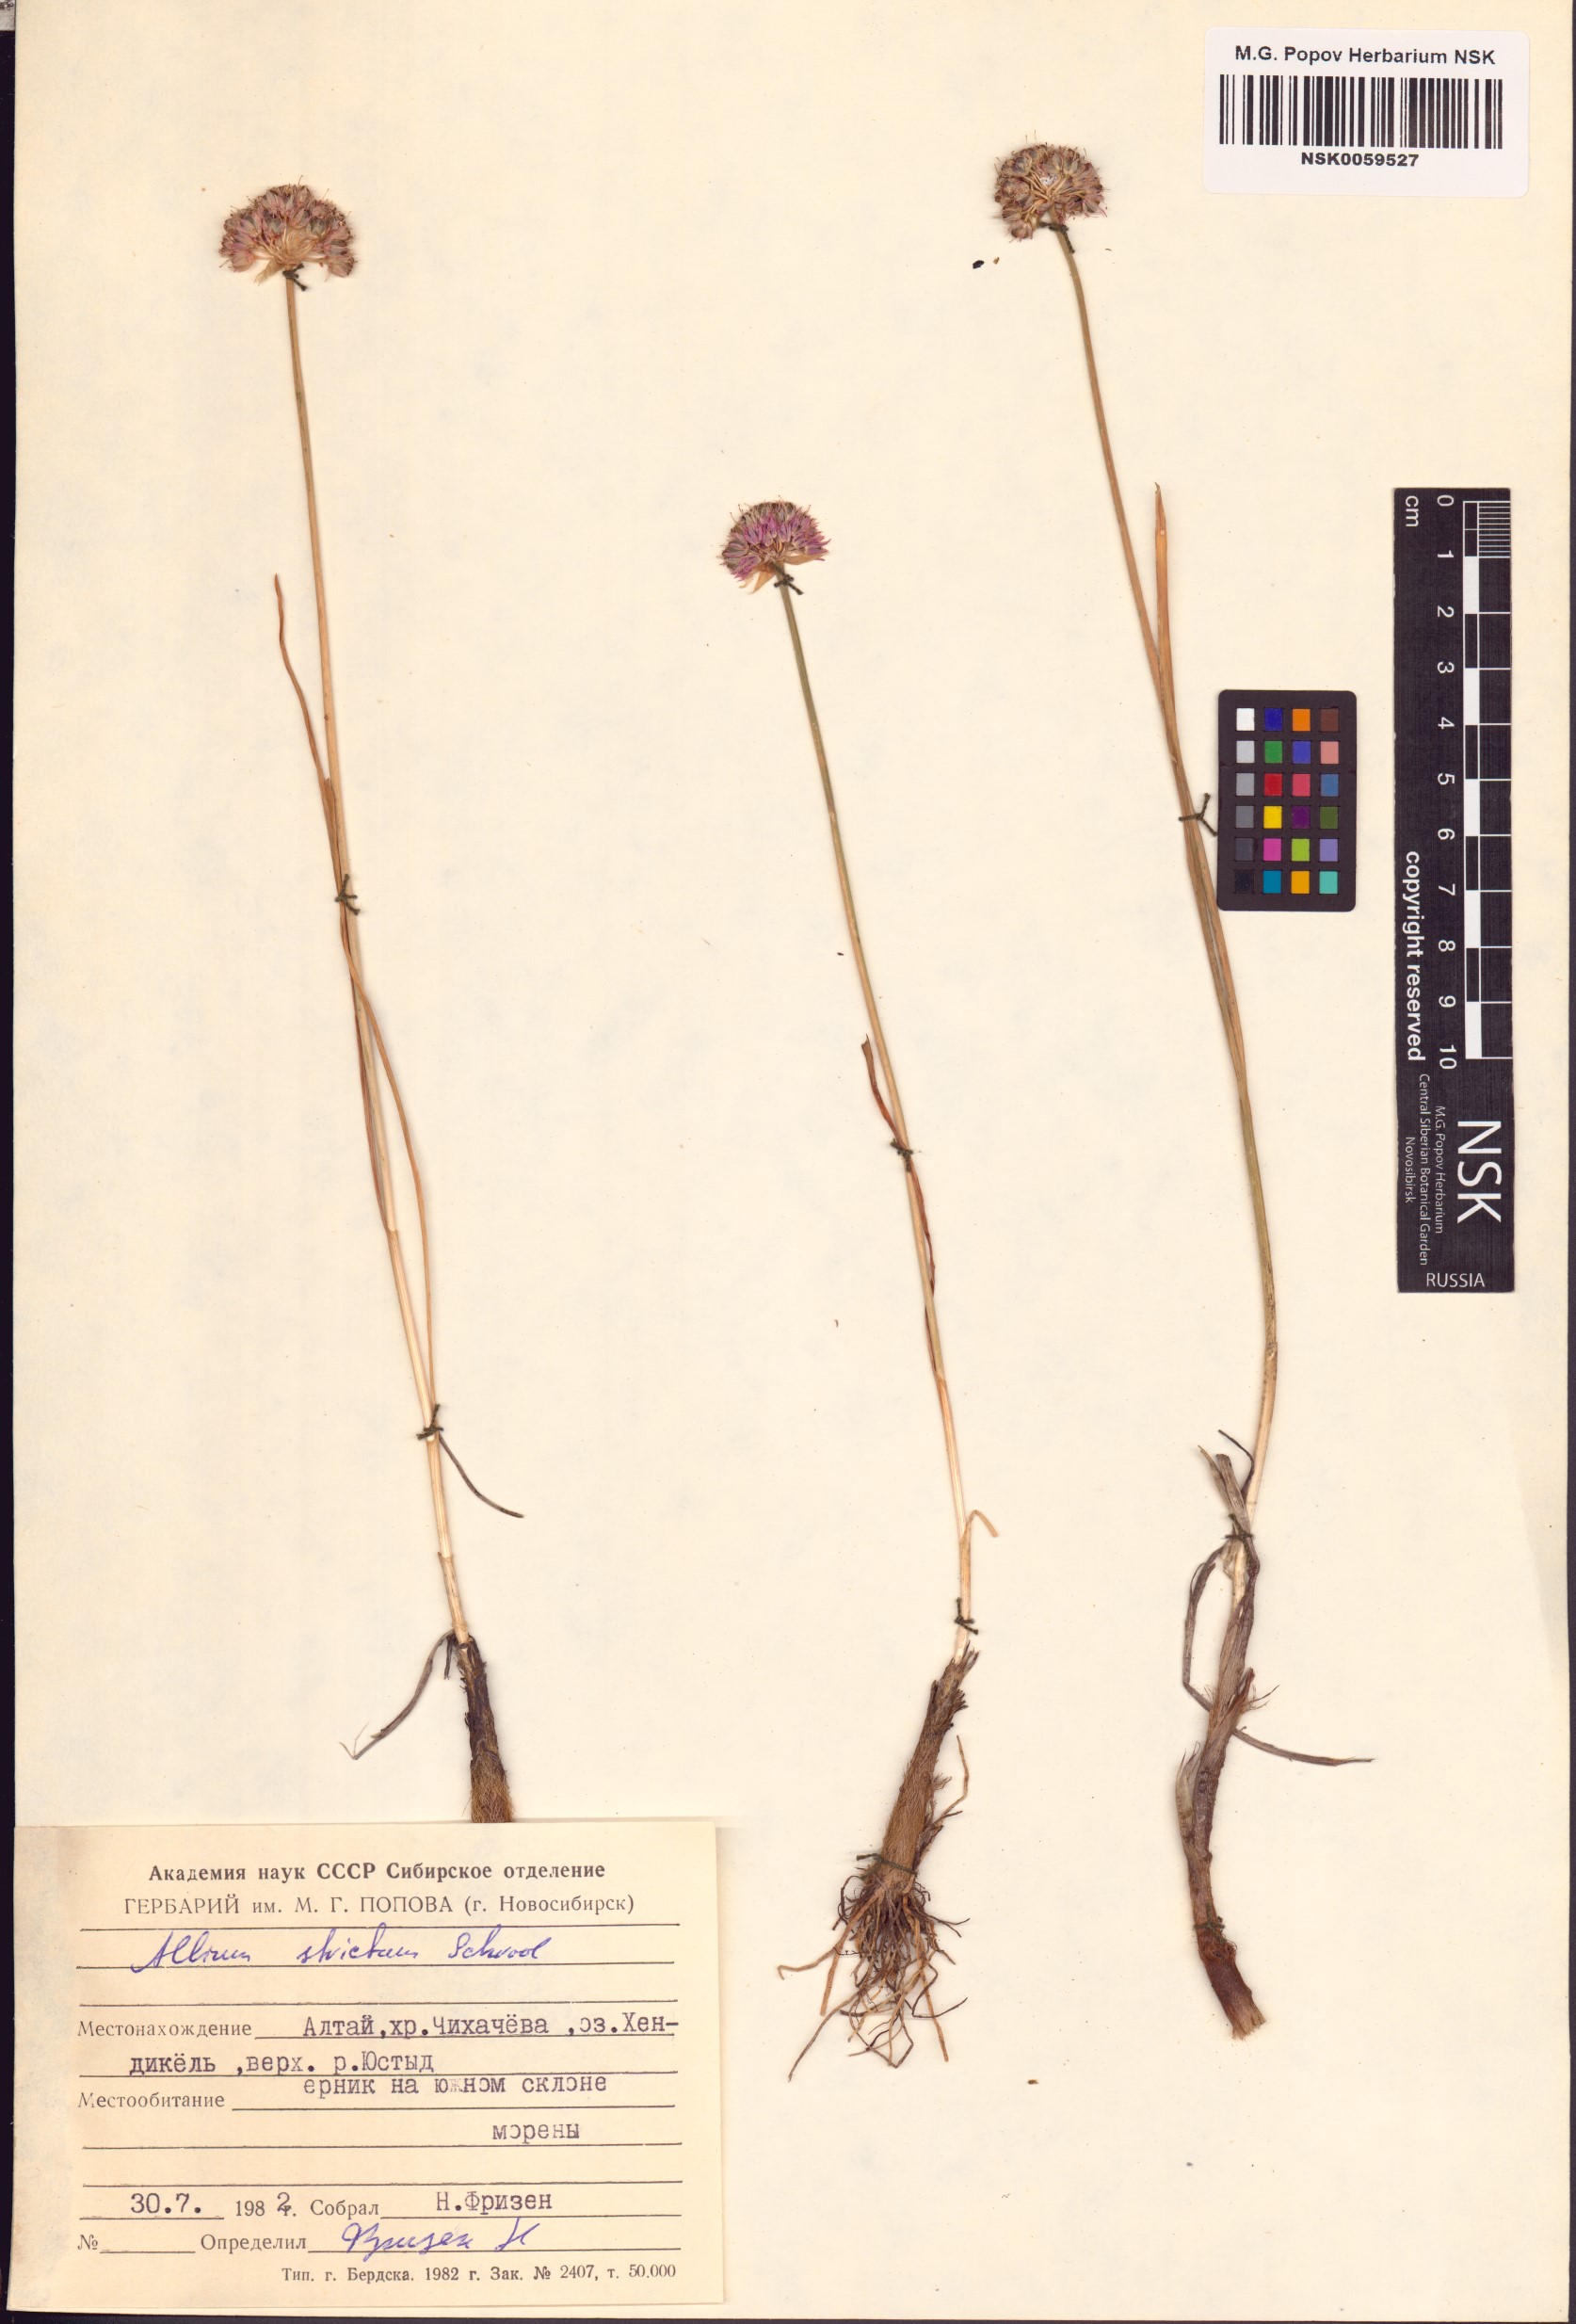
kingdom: Plantae
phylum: Tracheophyta
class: Liliopsida
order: Asparagales
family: Amaryllidaceae
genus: Allium
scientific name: Allium strictum
